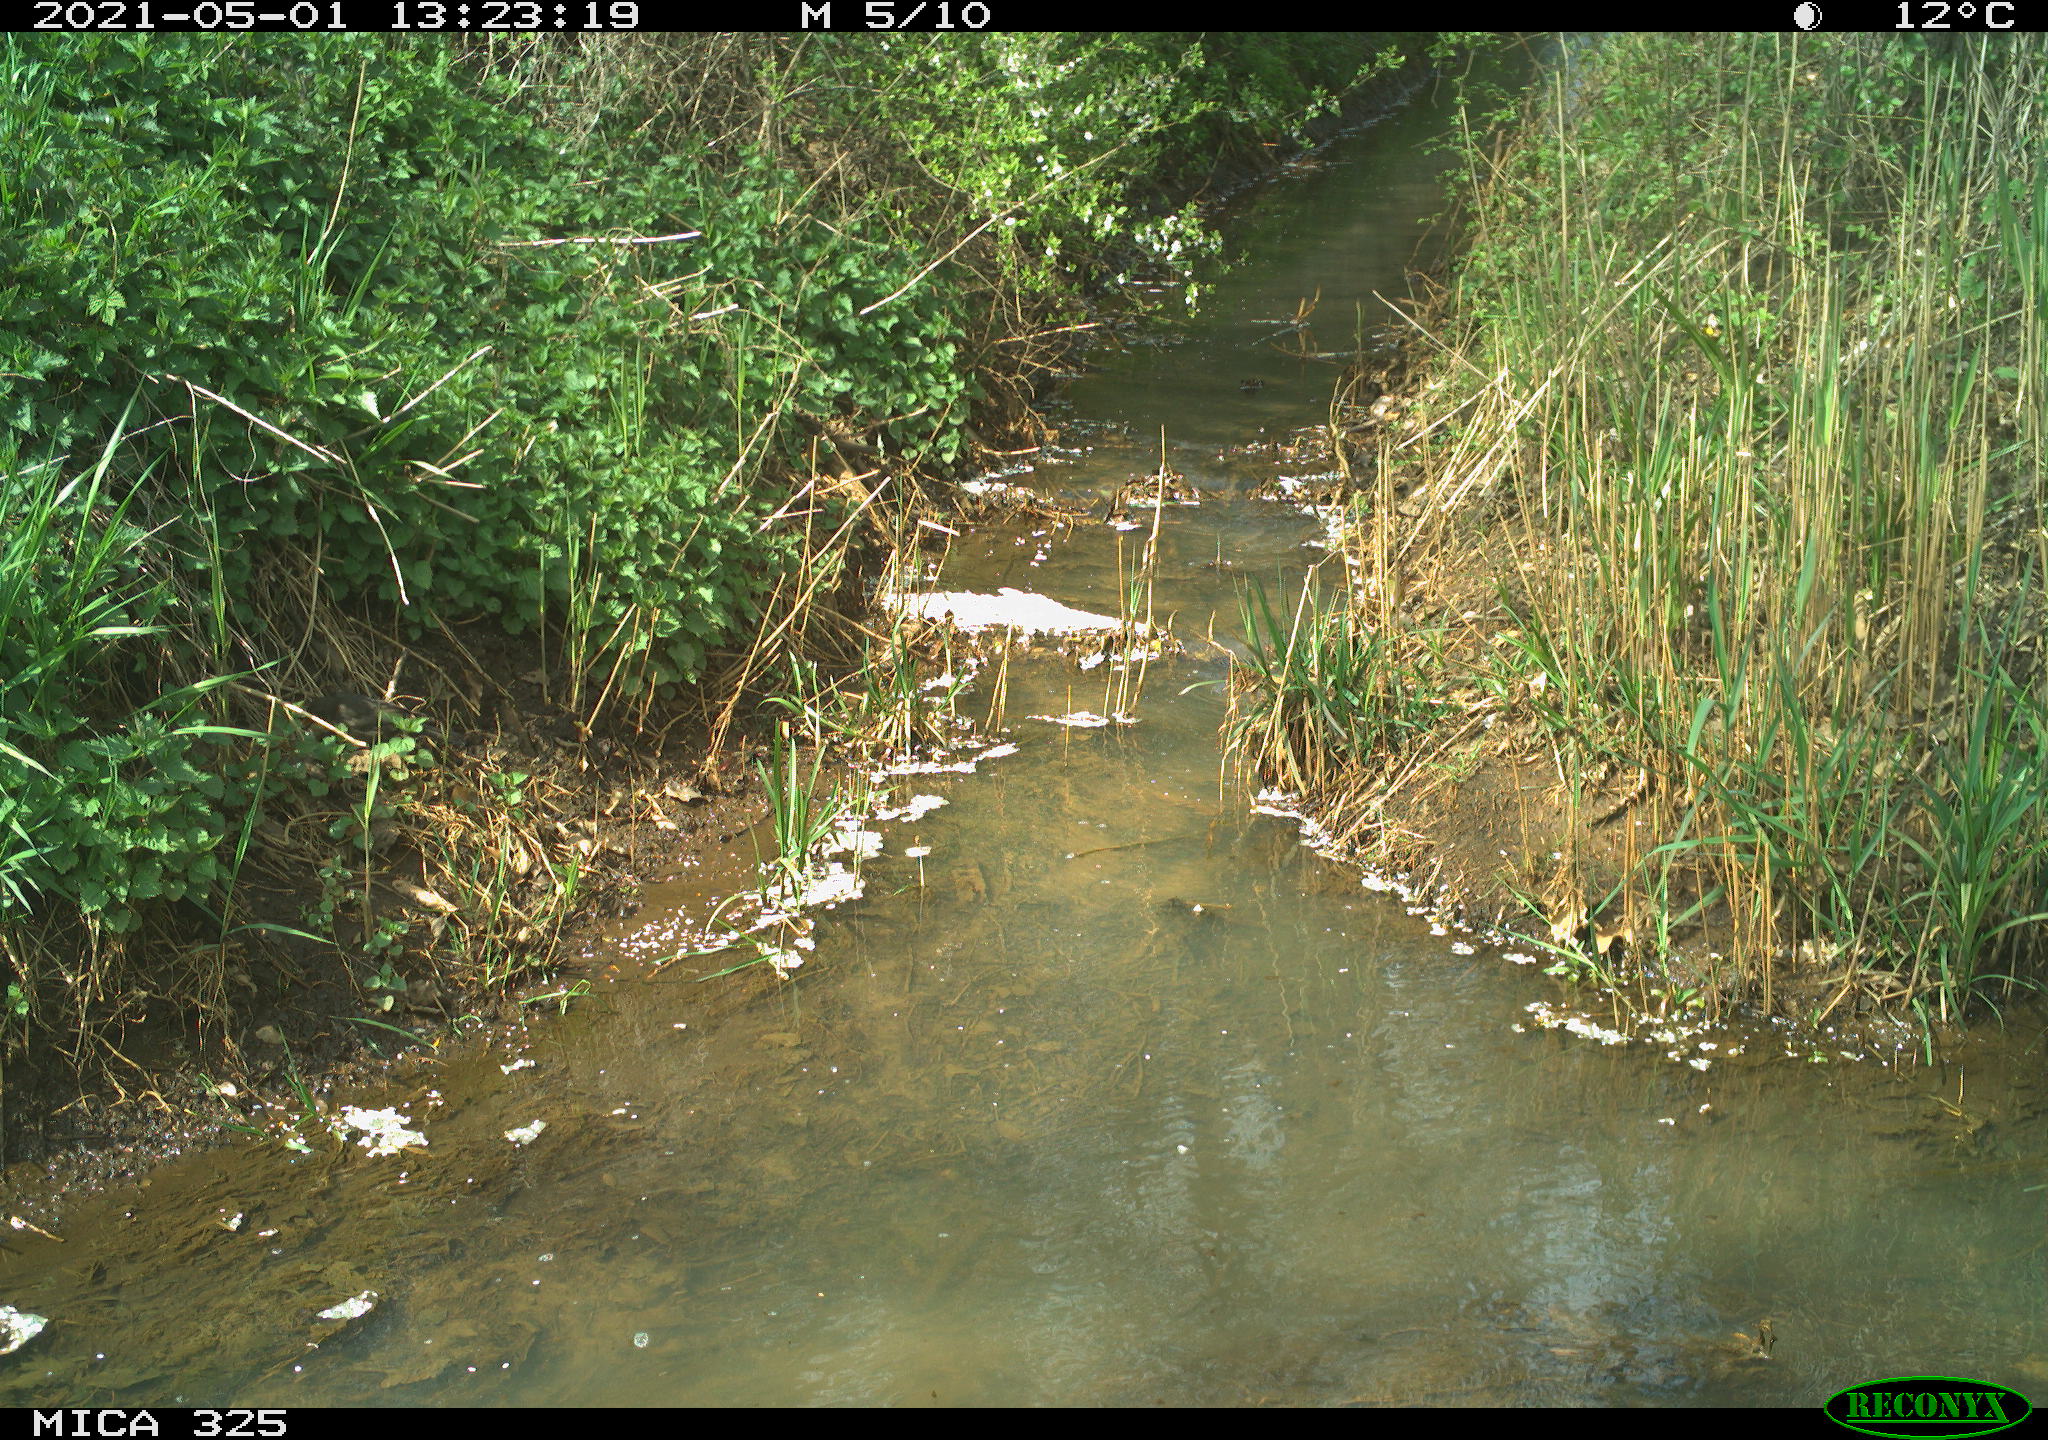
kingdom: Animalia
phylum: Chordata
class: Aves
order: Passeriformes
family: Turdidae
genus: Turdus
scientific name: Turdus merula
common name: Common blackbird
